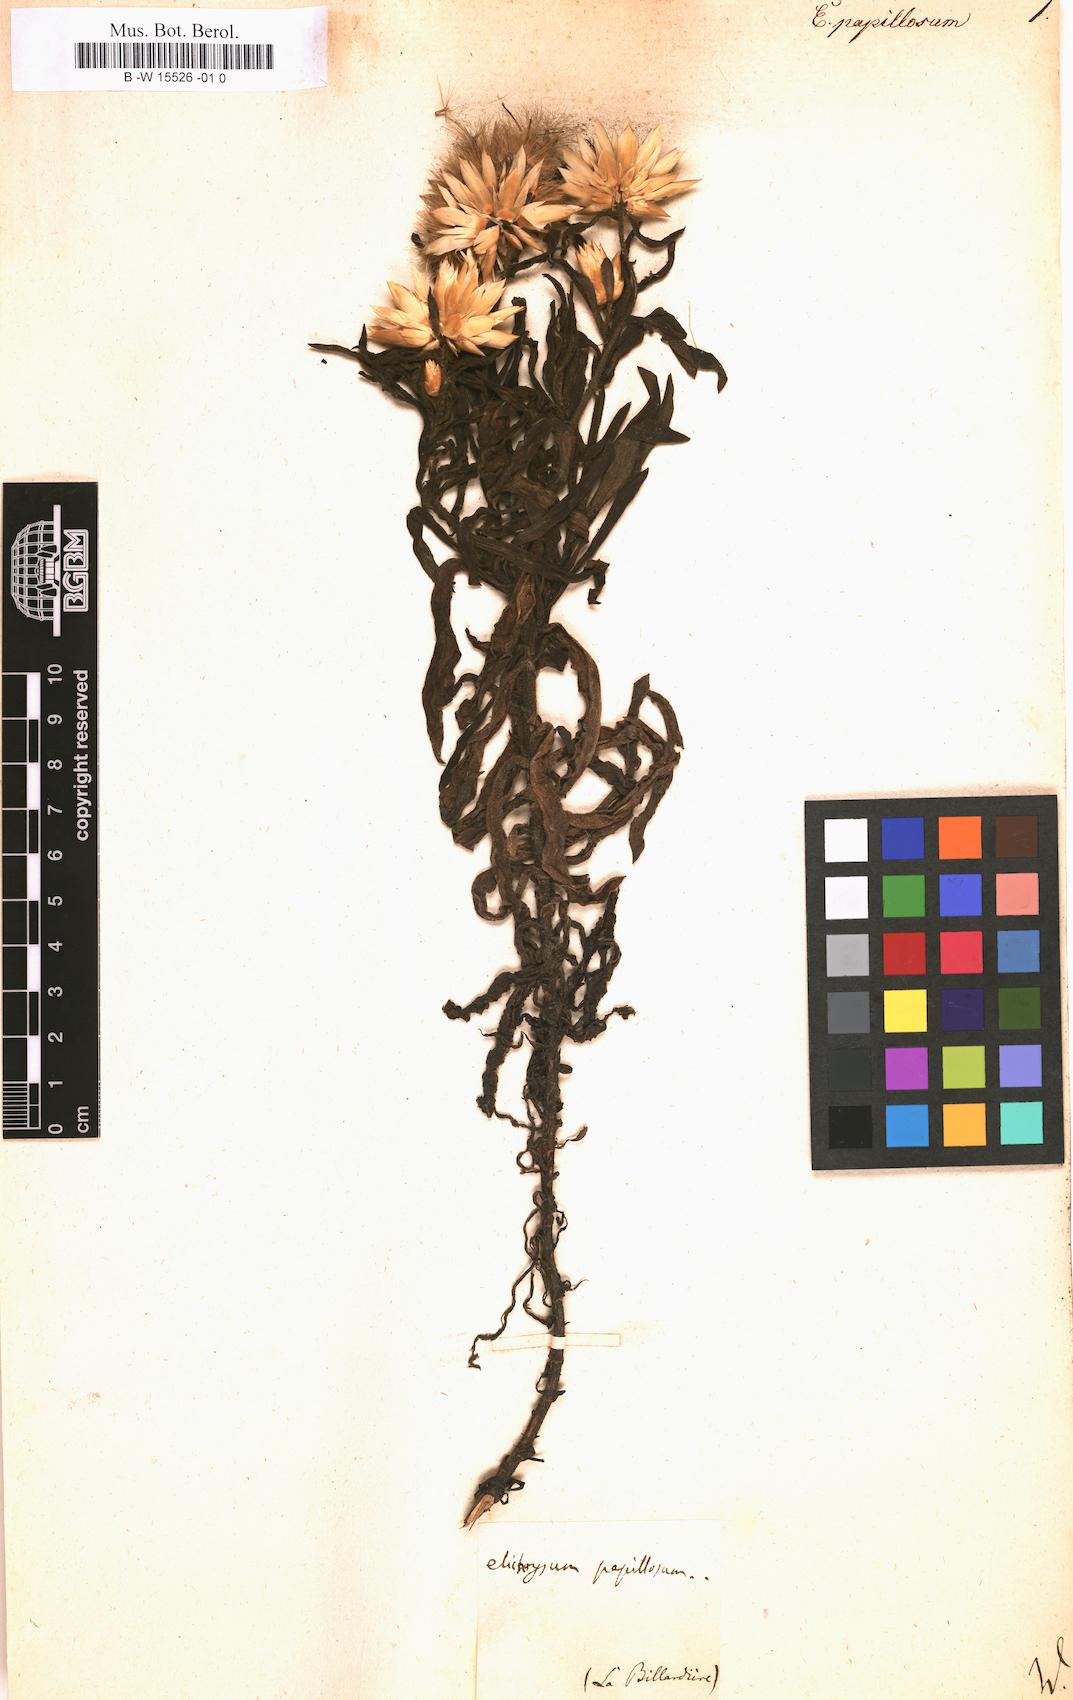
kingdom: Plantae
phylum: Tracheophyta
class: Magnoliopsida
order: Asterales
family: Asteraceae
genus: Helichrysum
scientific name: Helichrysum
